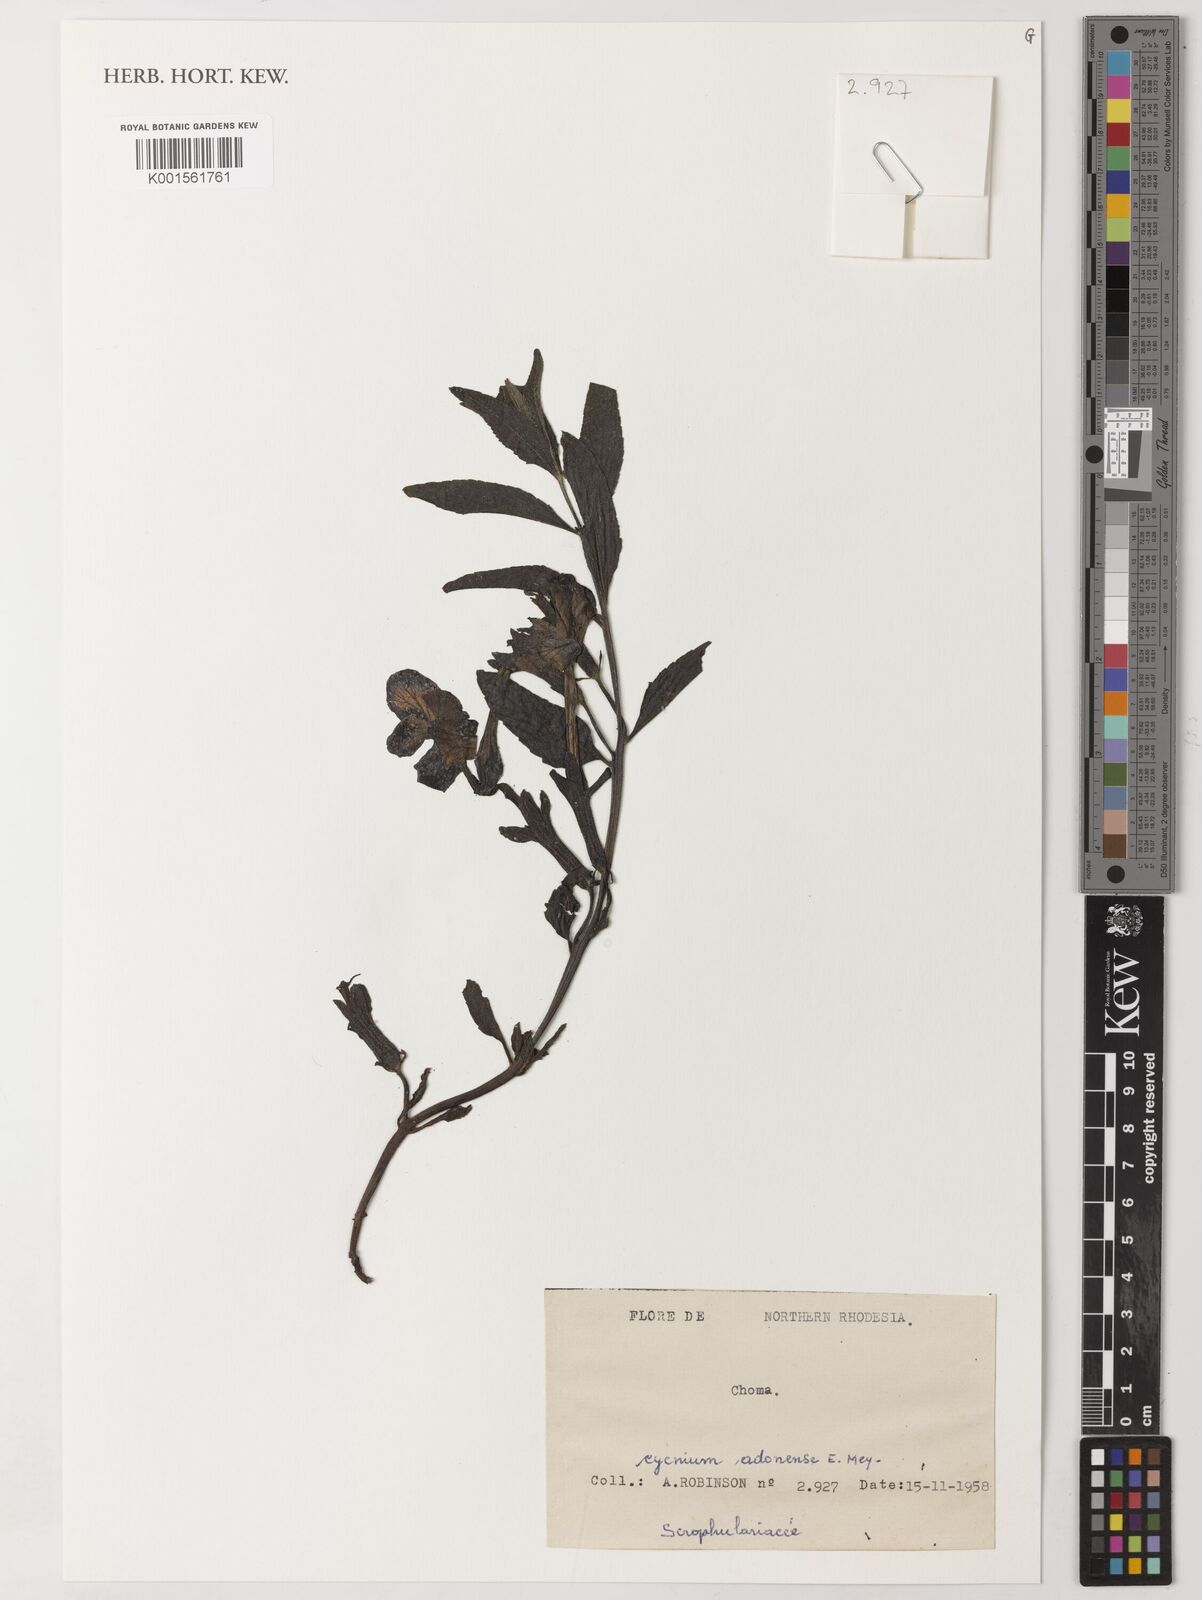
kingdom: Plantae
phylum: Tracheophyta
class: Magnoliopsida
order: Lamiales
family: Orobanchaceae
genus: Cycnium
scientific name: Cycnium adonense
